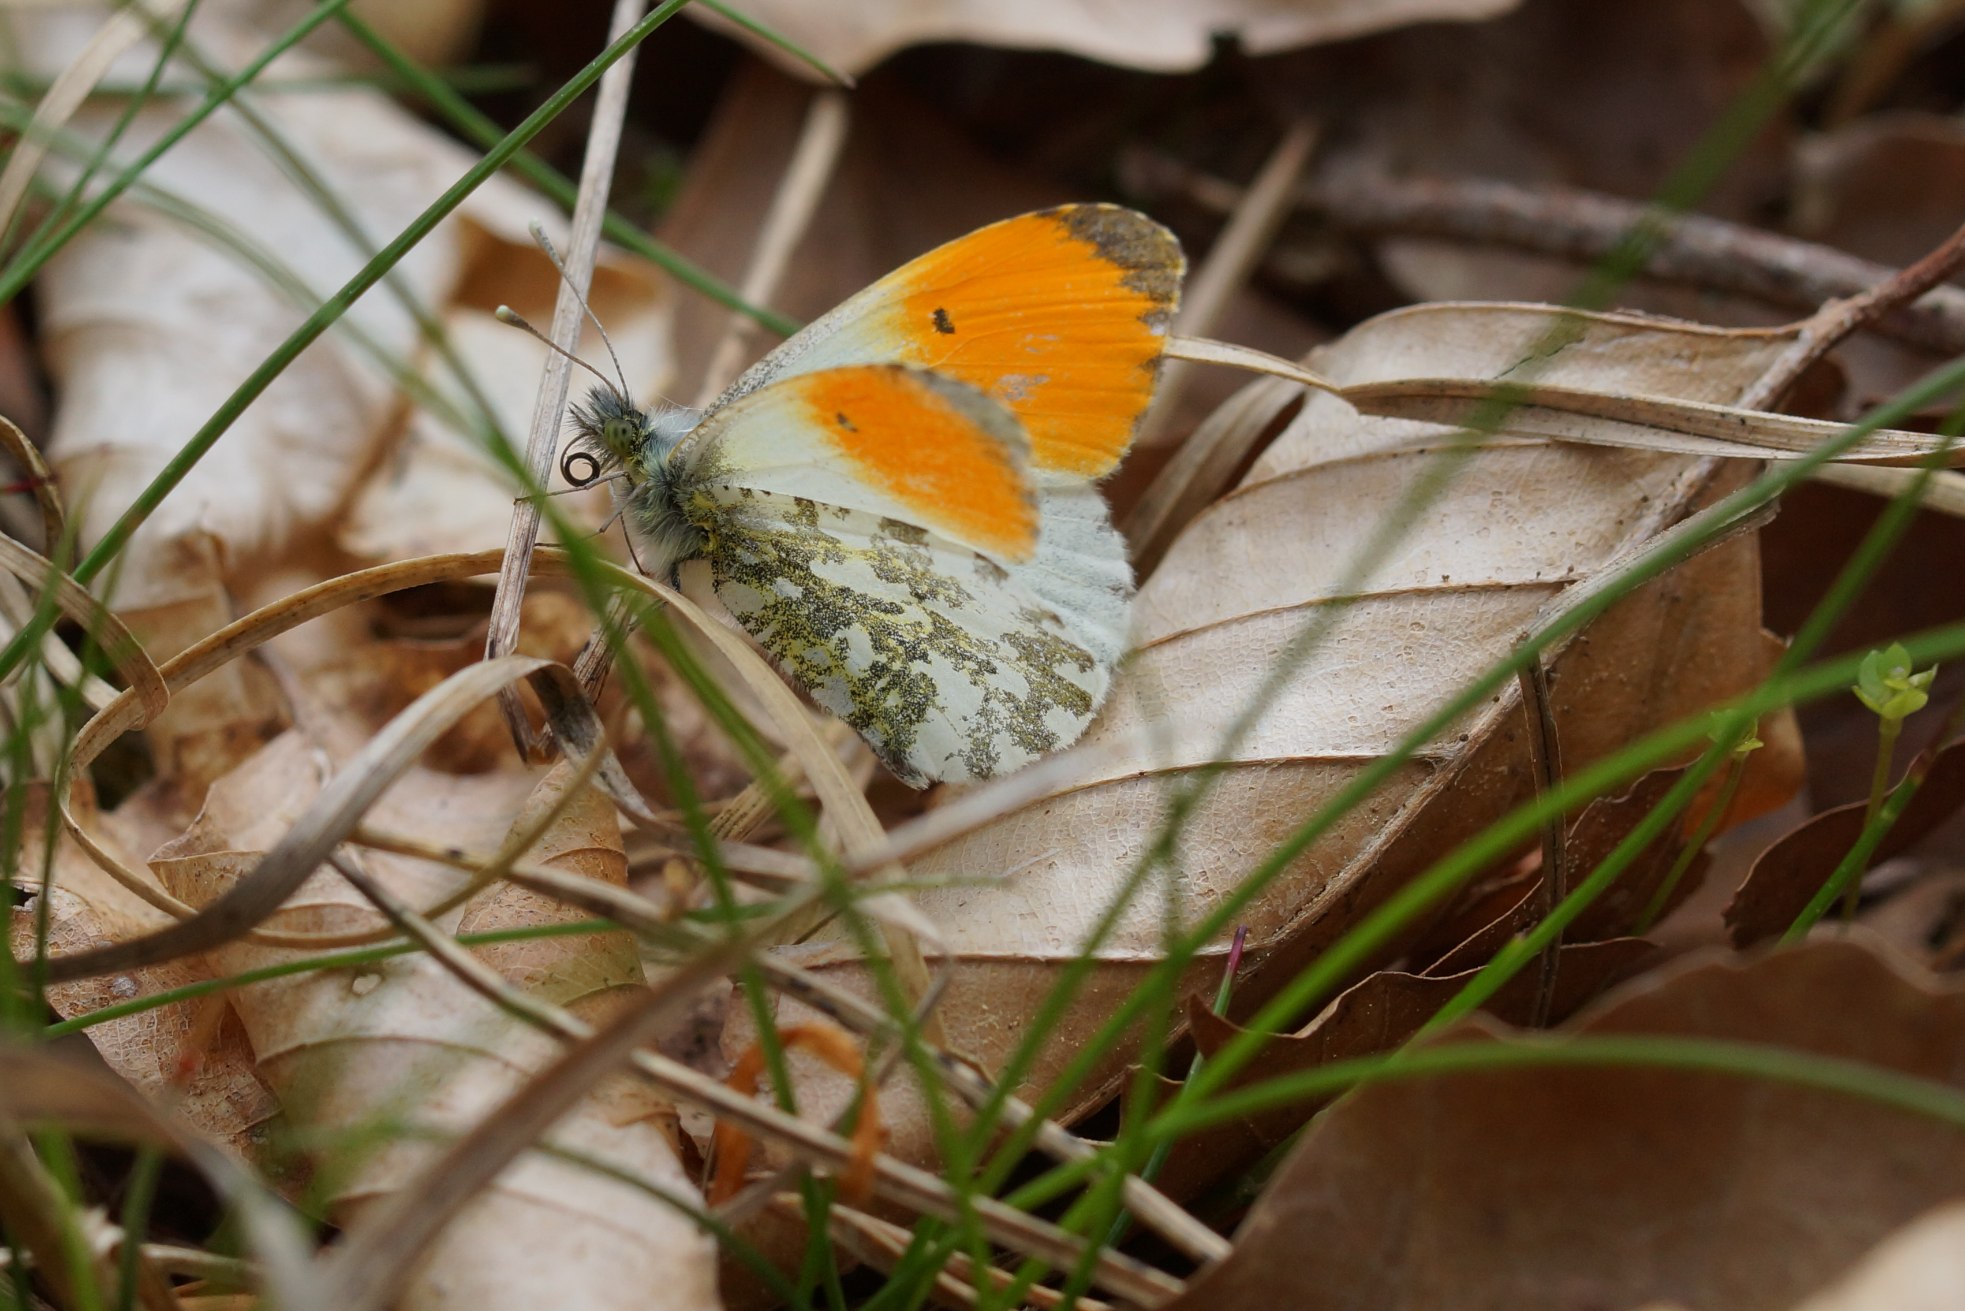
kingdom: Animalia
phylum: Arthropoda
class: Insecta
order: Lepidoptera
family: Pieridae
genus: Anthocharis
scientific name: Anthocharis cardamines
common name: Aurora
